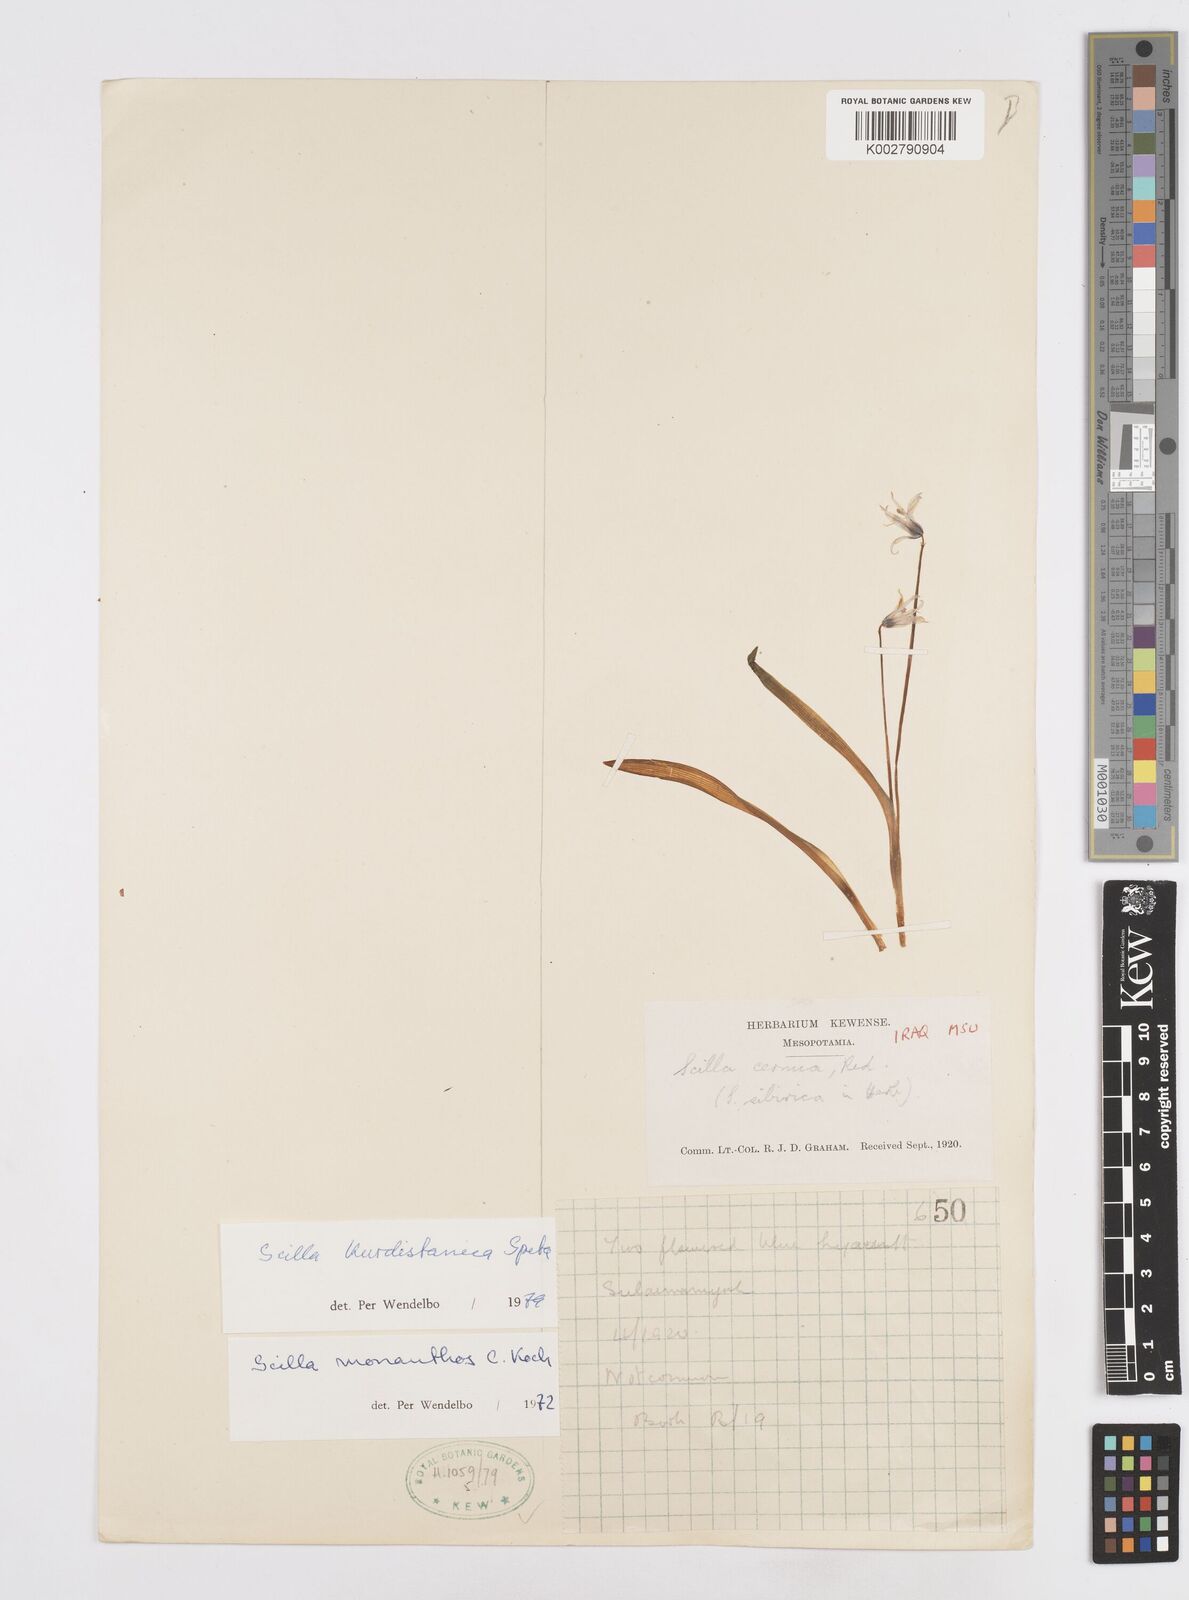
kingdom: Plantae
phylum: Tracheophyta
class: Liliopsida
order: Asparagales
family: Asparagaceae
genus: Scilla
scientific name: Scilla kurdistanica
